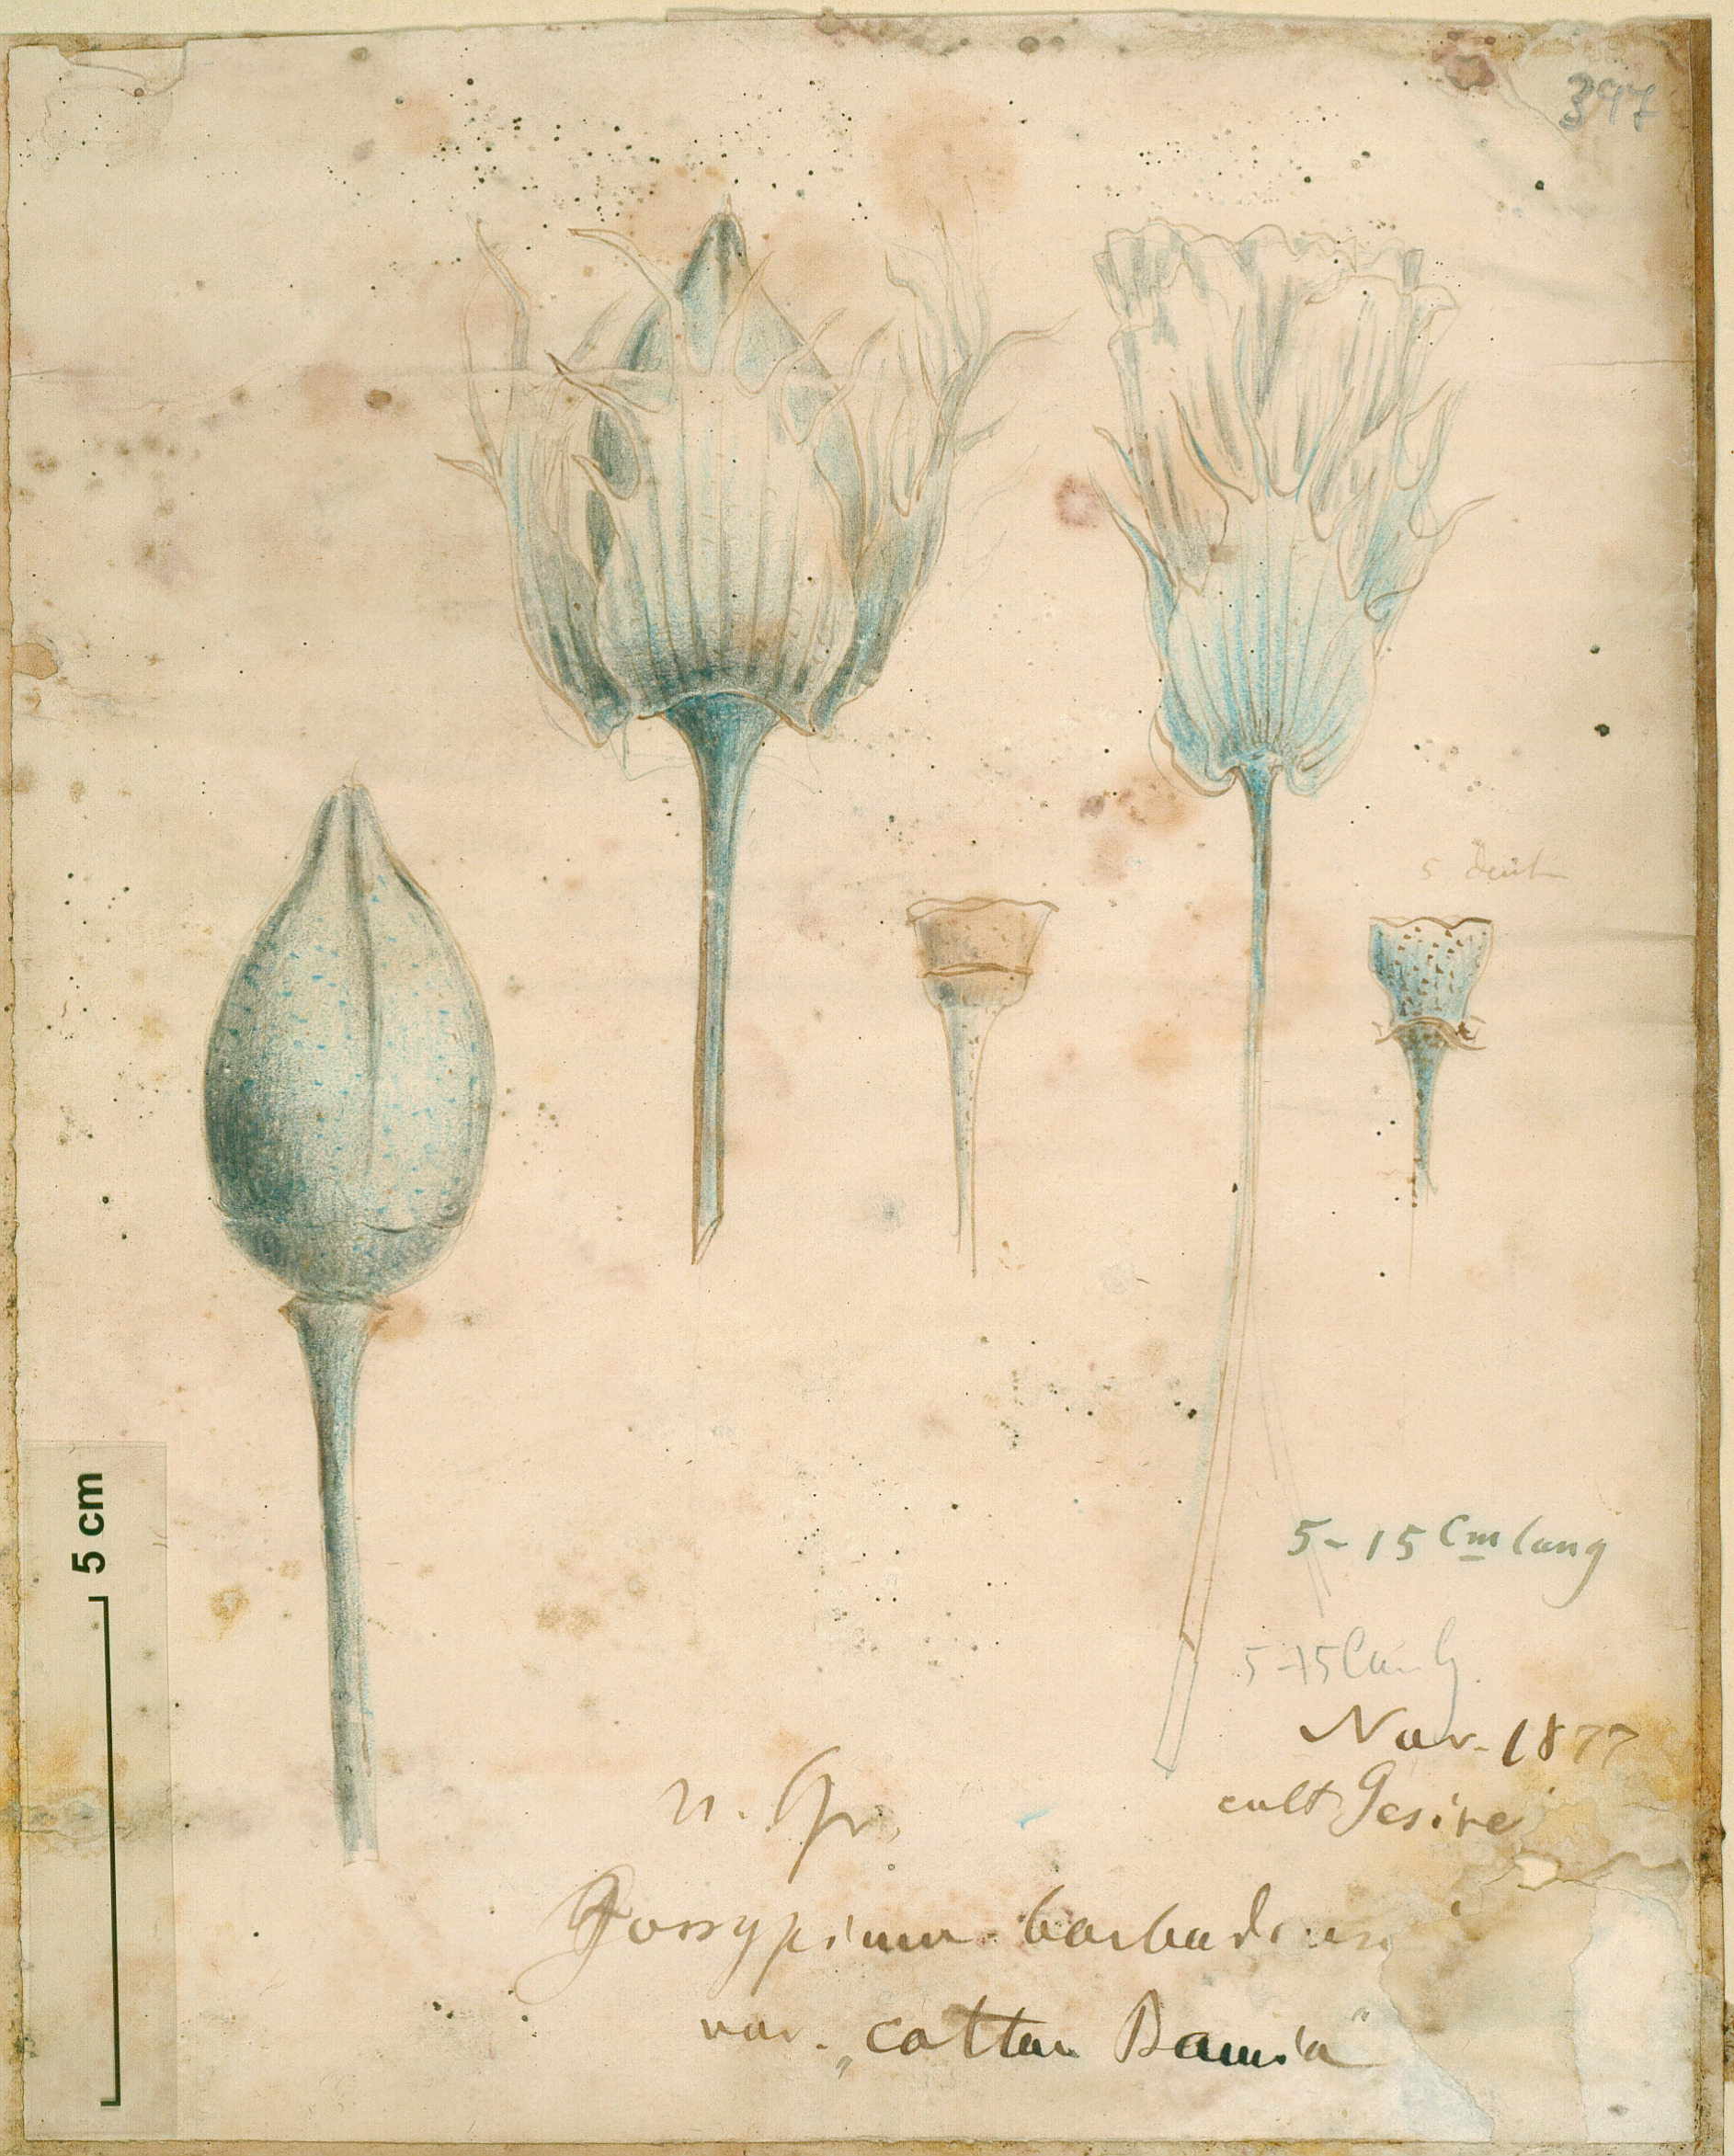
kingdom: Plantae
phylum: Tracheophyta
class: Magnoliopsida
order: Malvales
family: Malvaceae
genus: Gossypium
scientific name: Gossypium barbadense
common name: Creole cotton
